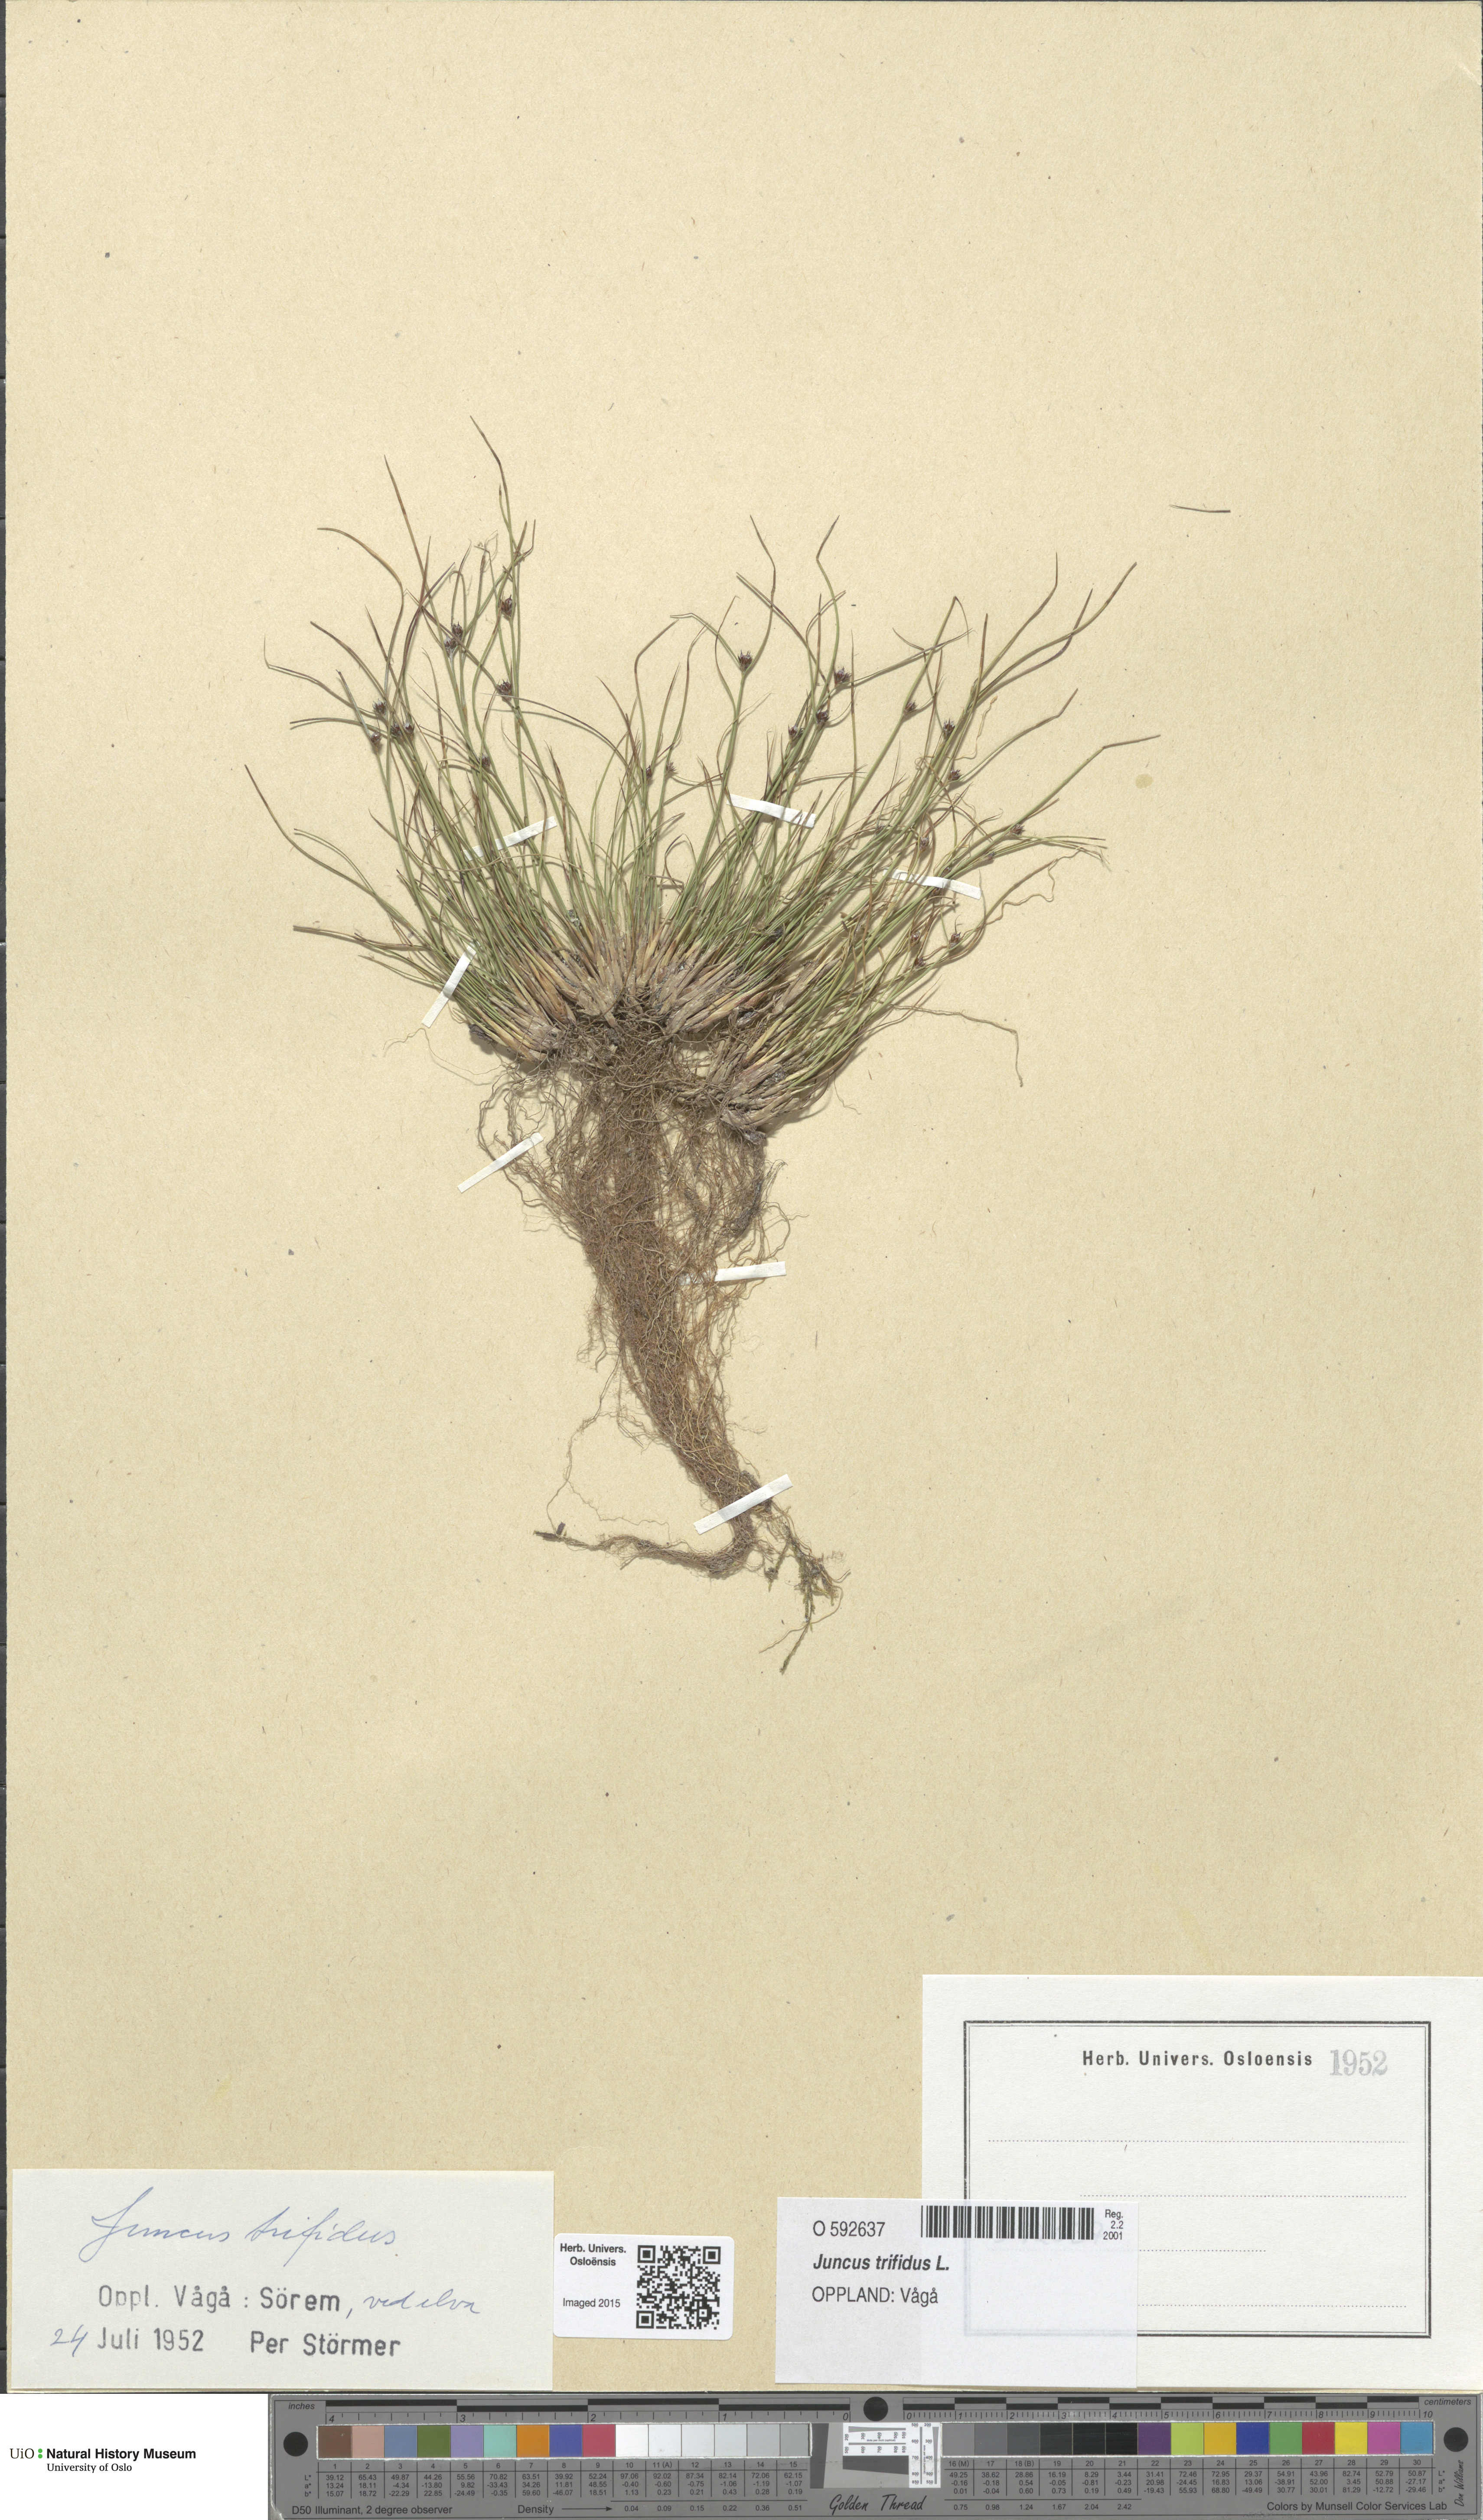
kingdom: Plantae
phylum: Tracheophyta
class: Liliopsida
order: Poales
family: Juncaceae
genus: Oreojuncus
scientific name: Oreojuncus trifidus
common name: Highland rush
